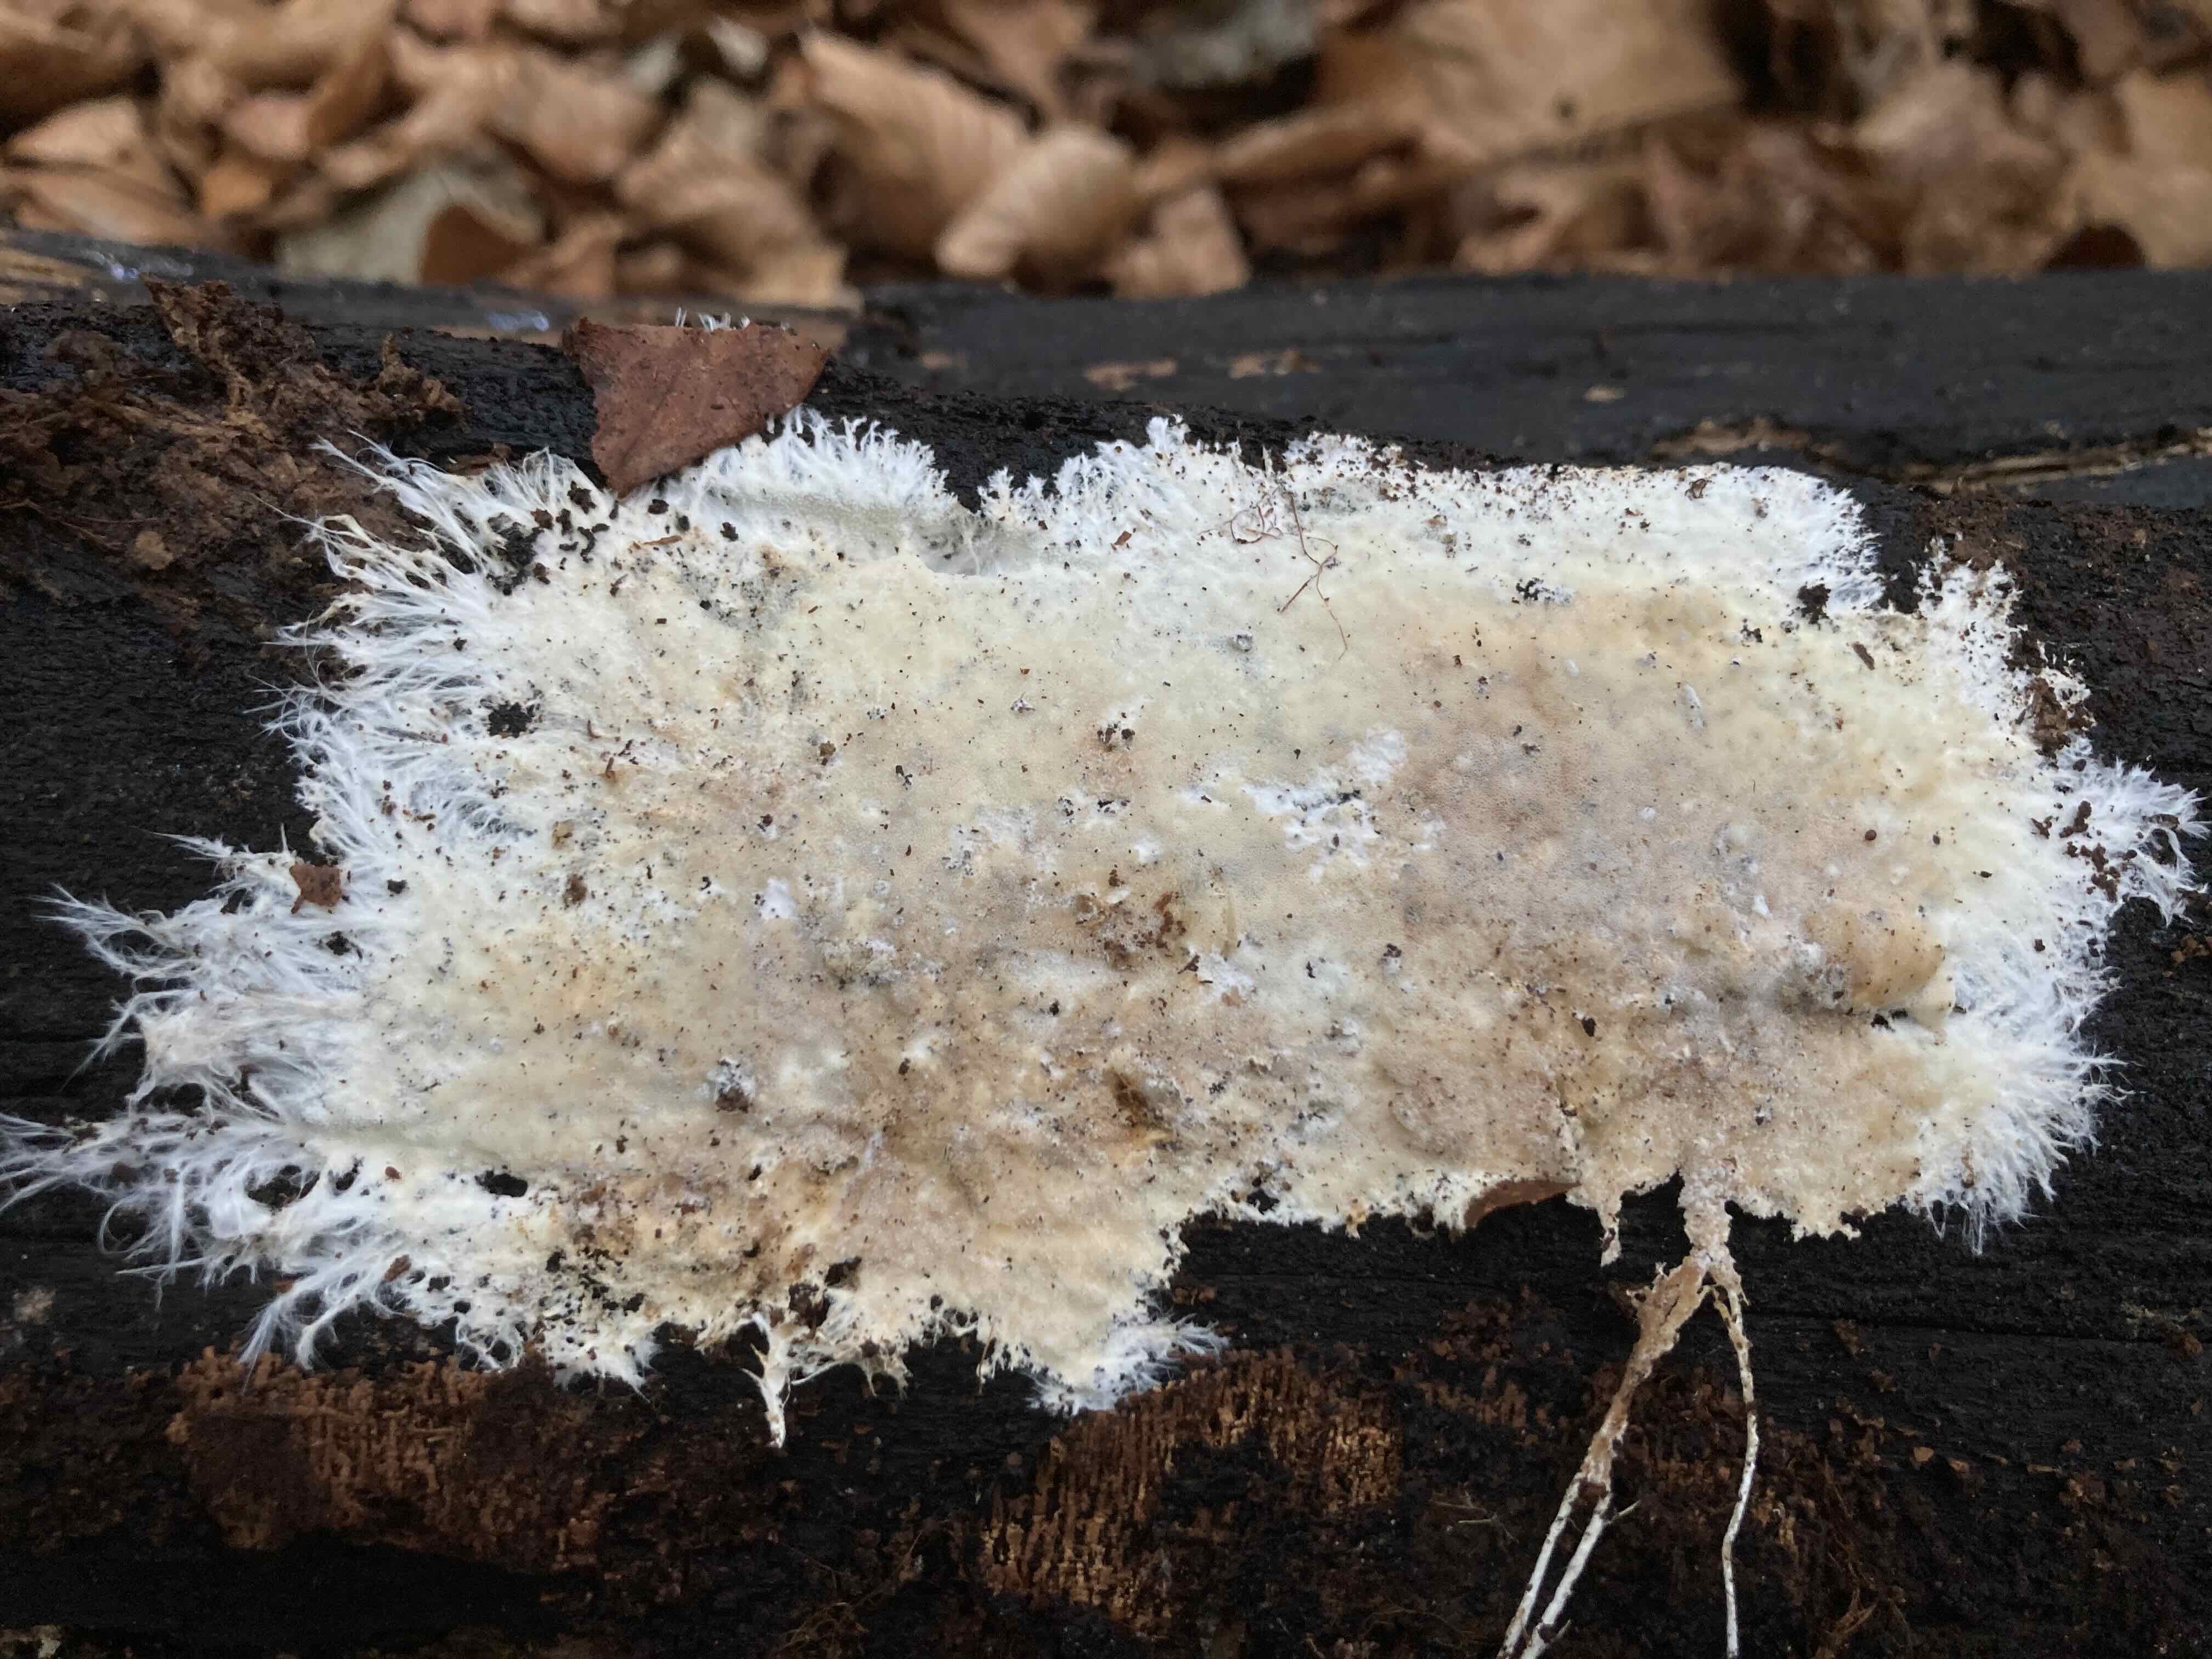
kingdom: Fungi
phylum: Basidiomycota
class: Agaricomycetes
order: Agaricales
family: Porotheleaceae
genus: Porotheleum
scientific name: Porotheleum fimbriatum
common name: poreskål
